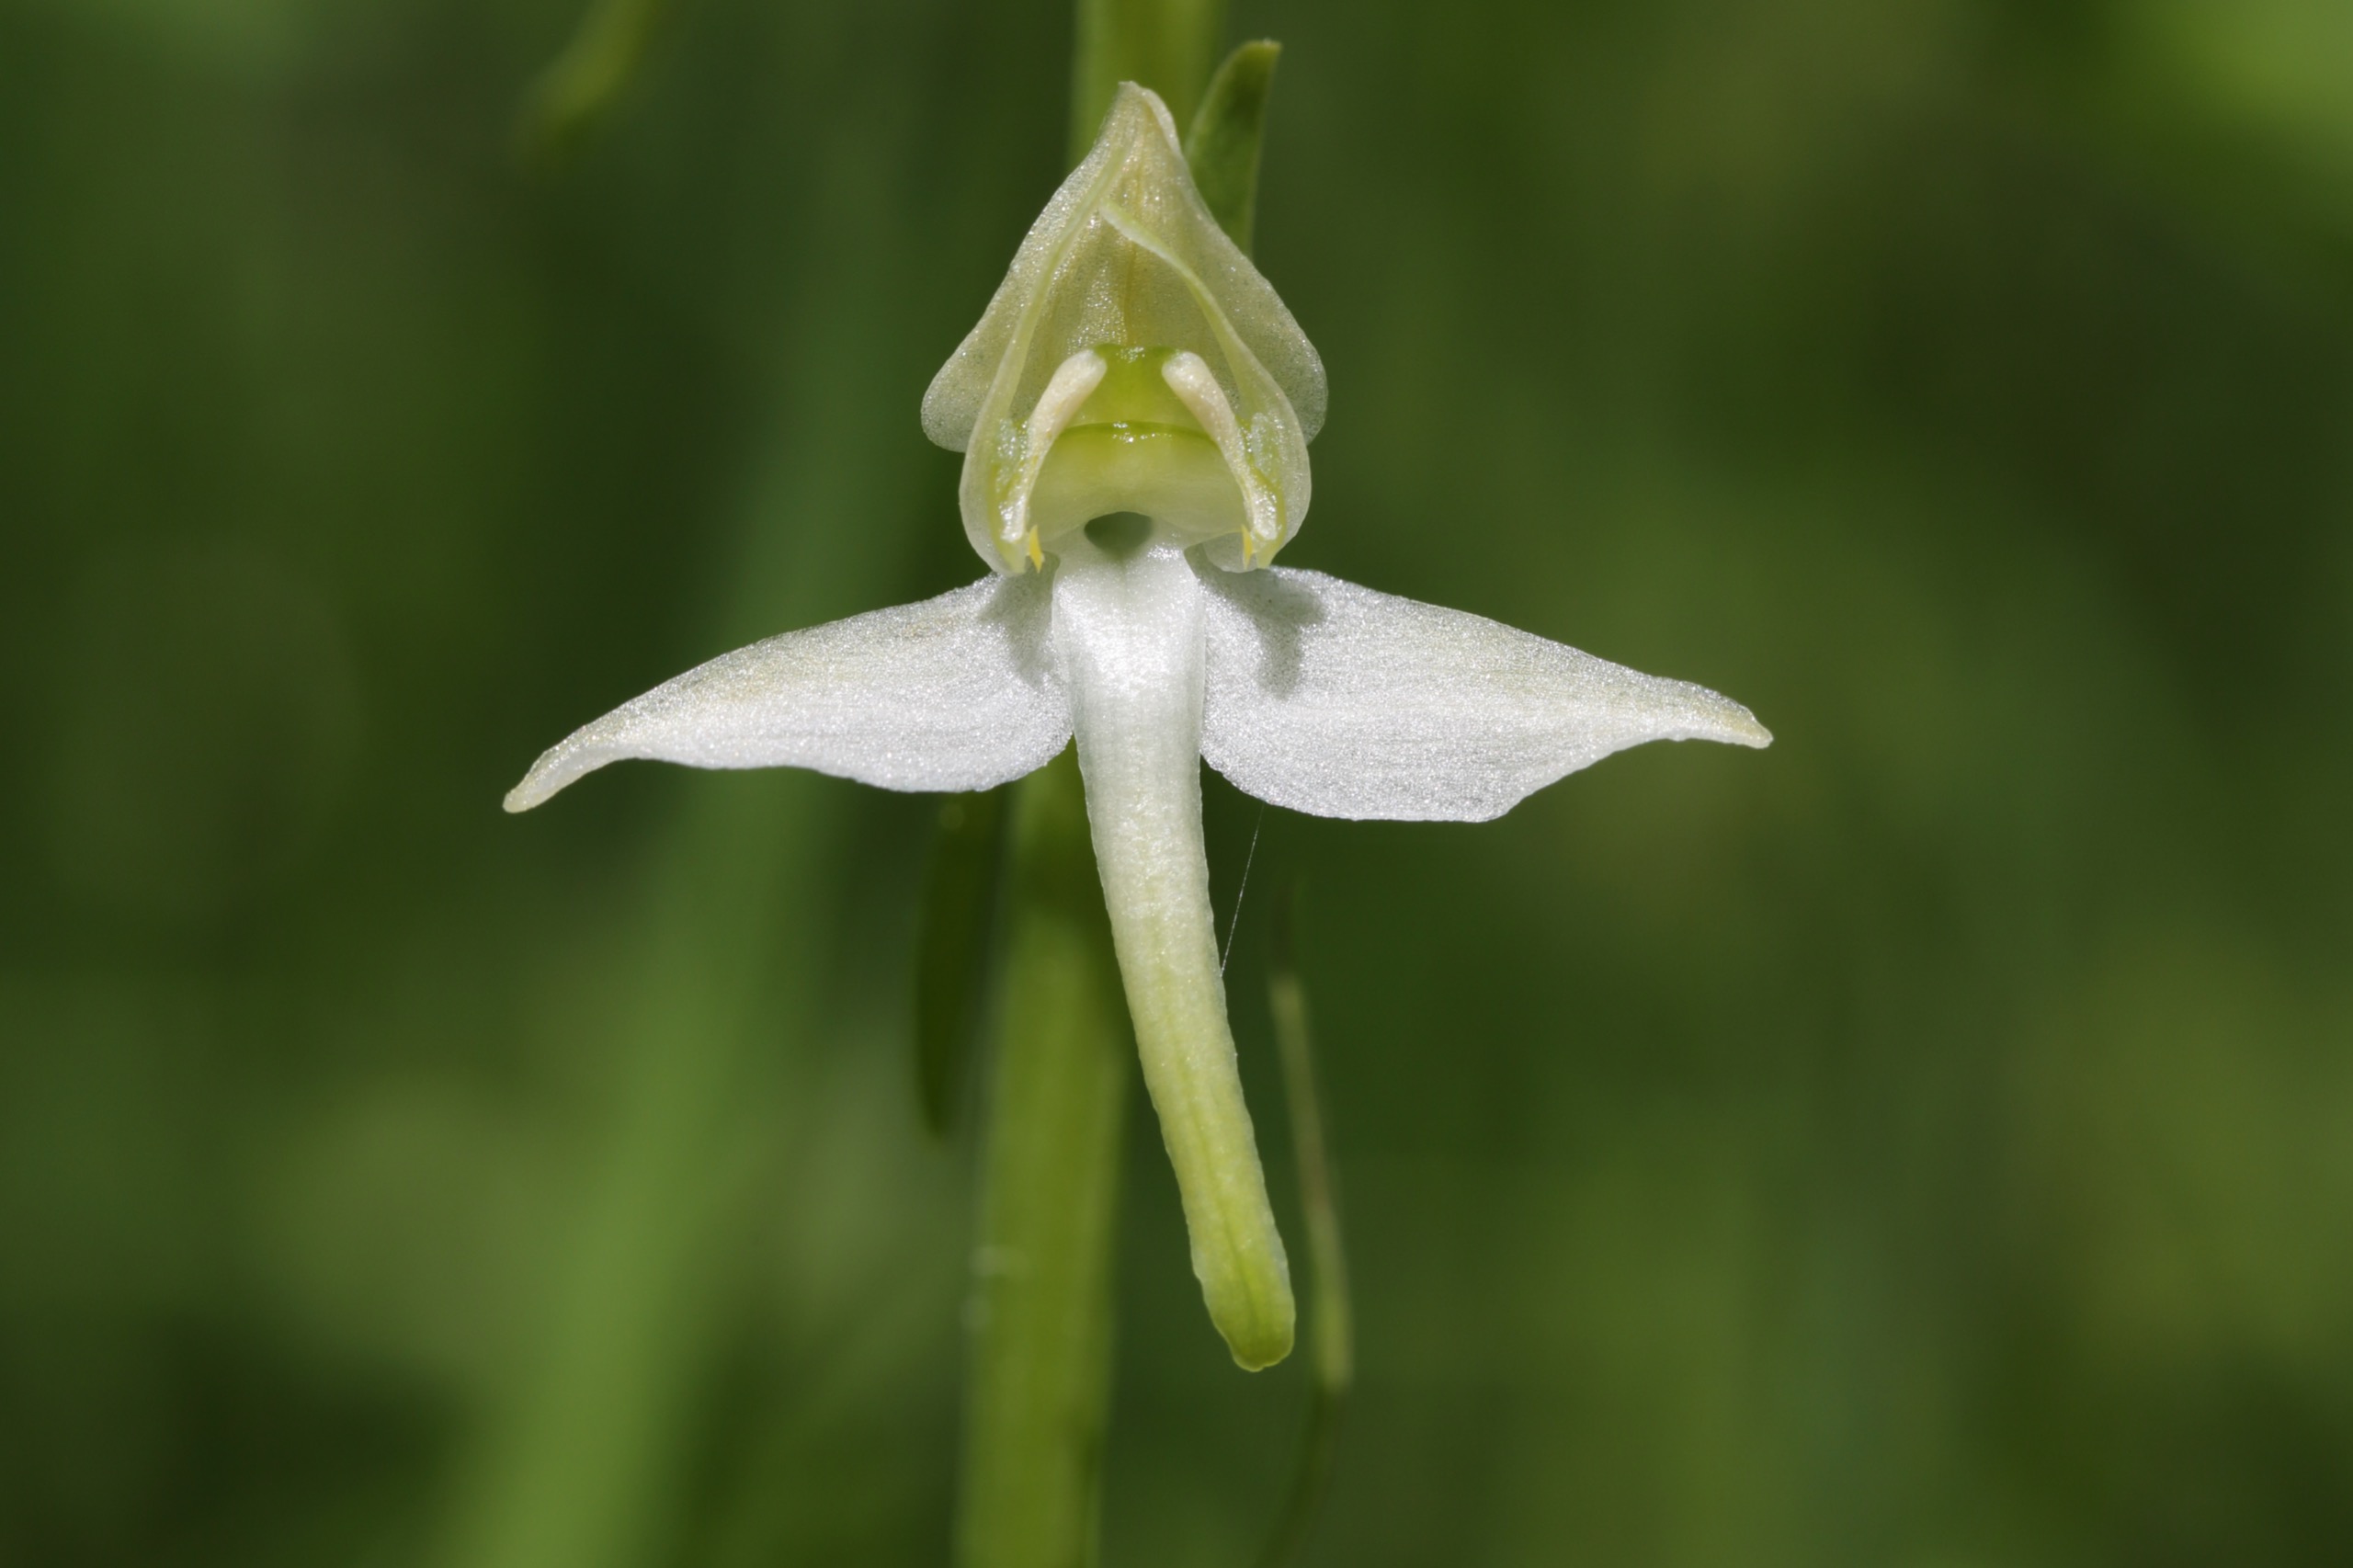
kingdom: Plantae
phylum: Tracheophyta
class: Liliopsida
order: Asparagales
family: Orchidaceae
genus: Platanthera
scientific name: Platanthera chlorantha
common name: Skov-gøgelilje
